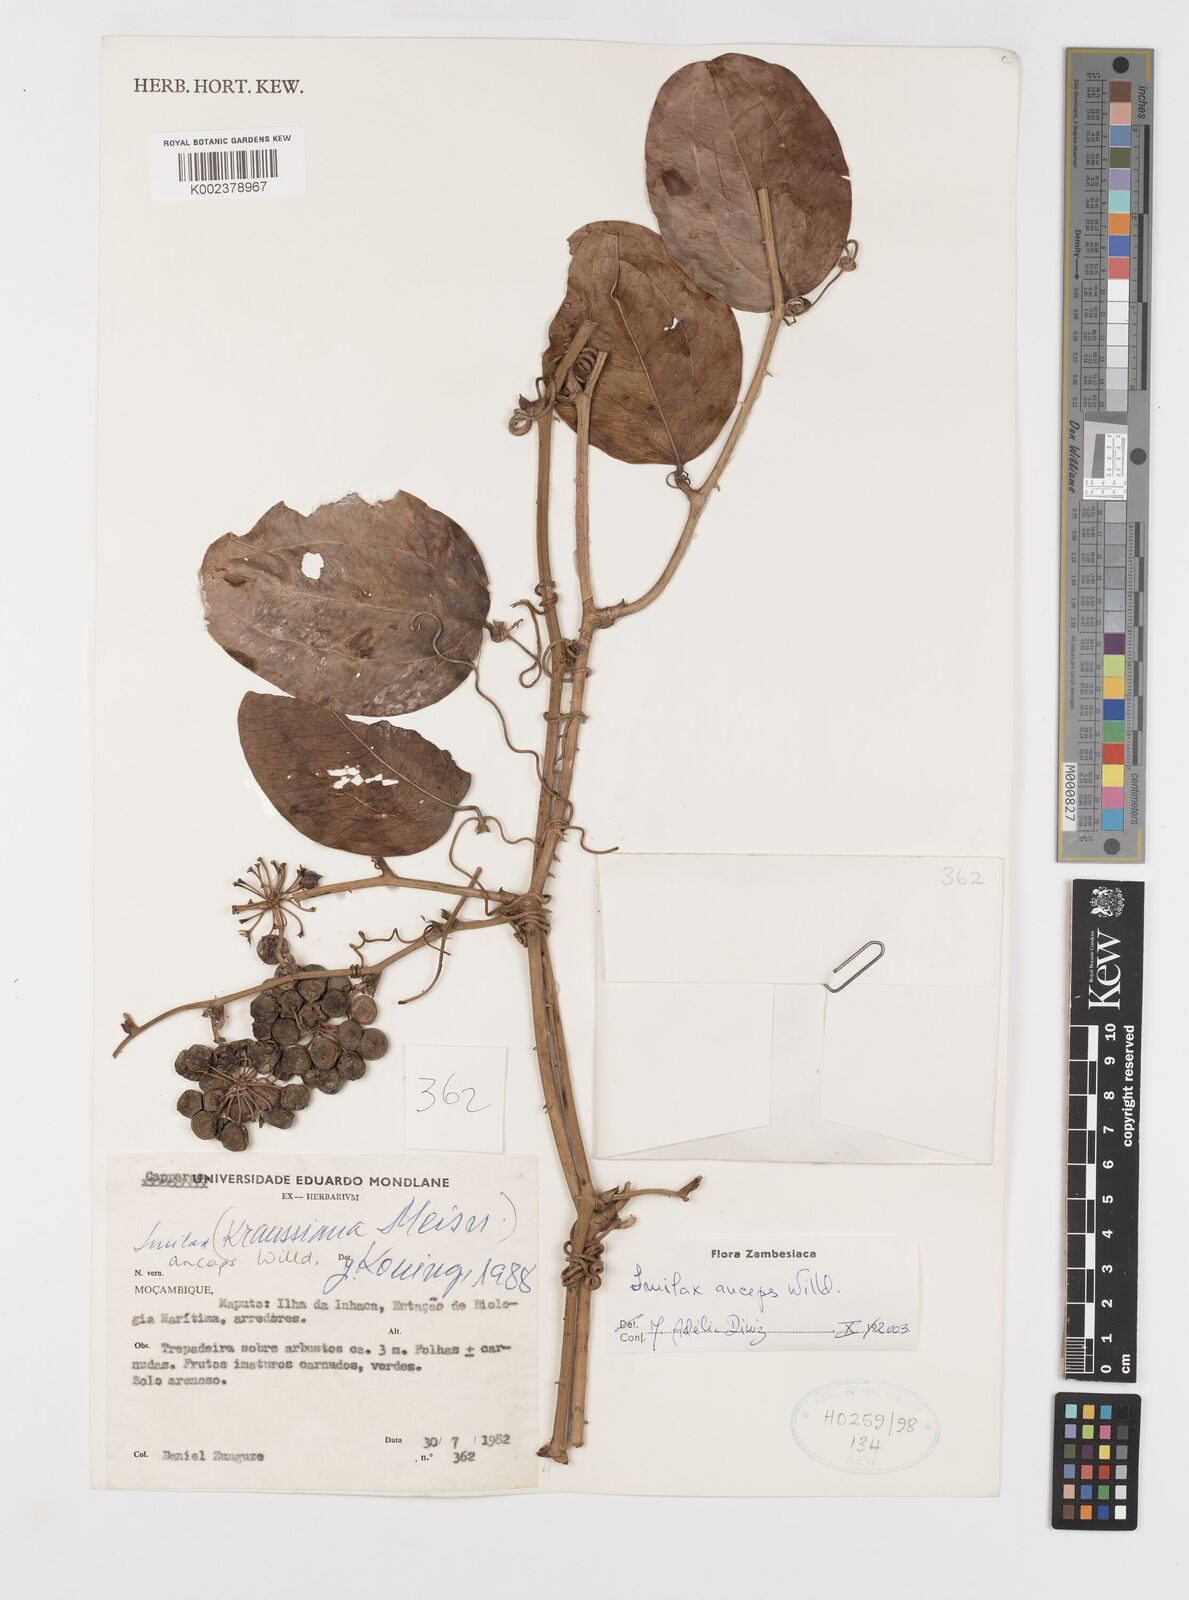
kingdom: Plantae
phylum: Tracheophyta
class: Liliopsida
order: Liliales
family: Smilacaceae
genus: Smilax
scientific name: Smilax anceps
